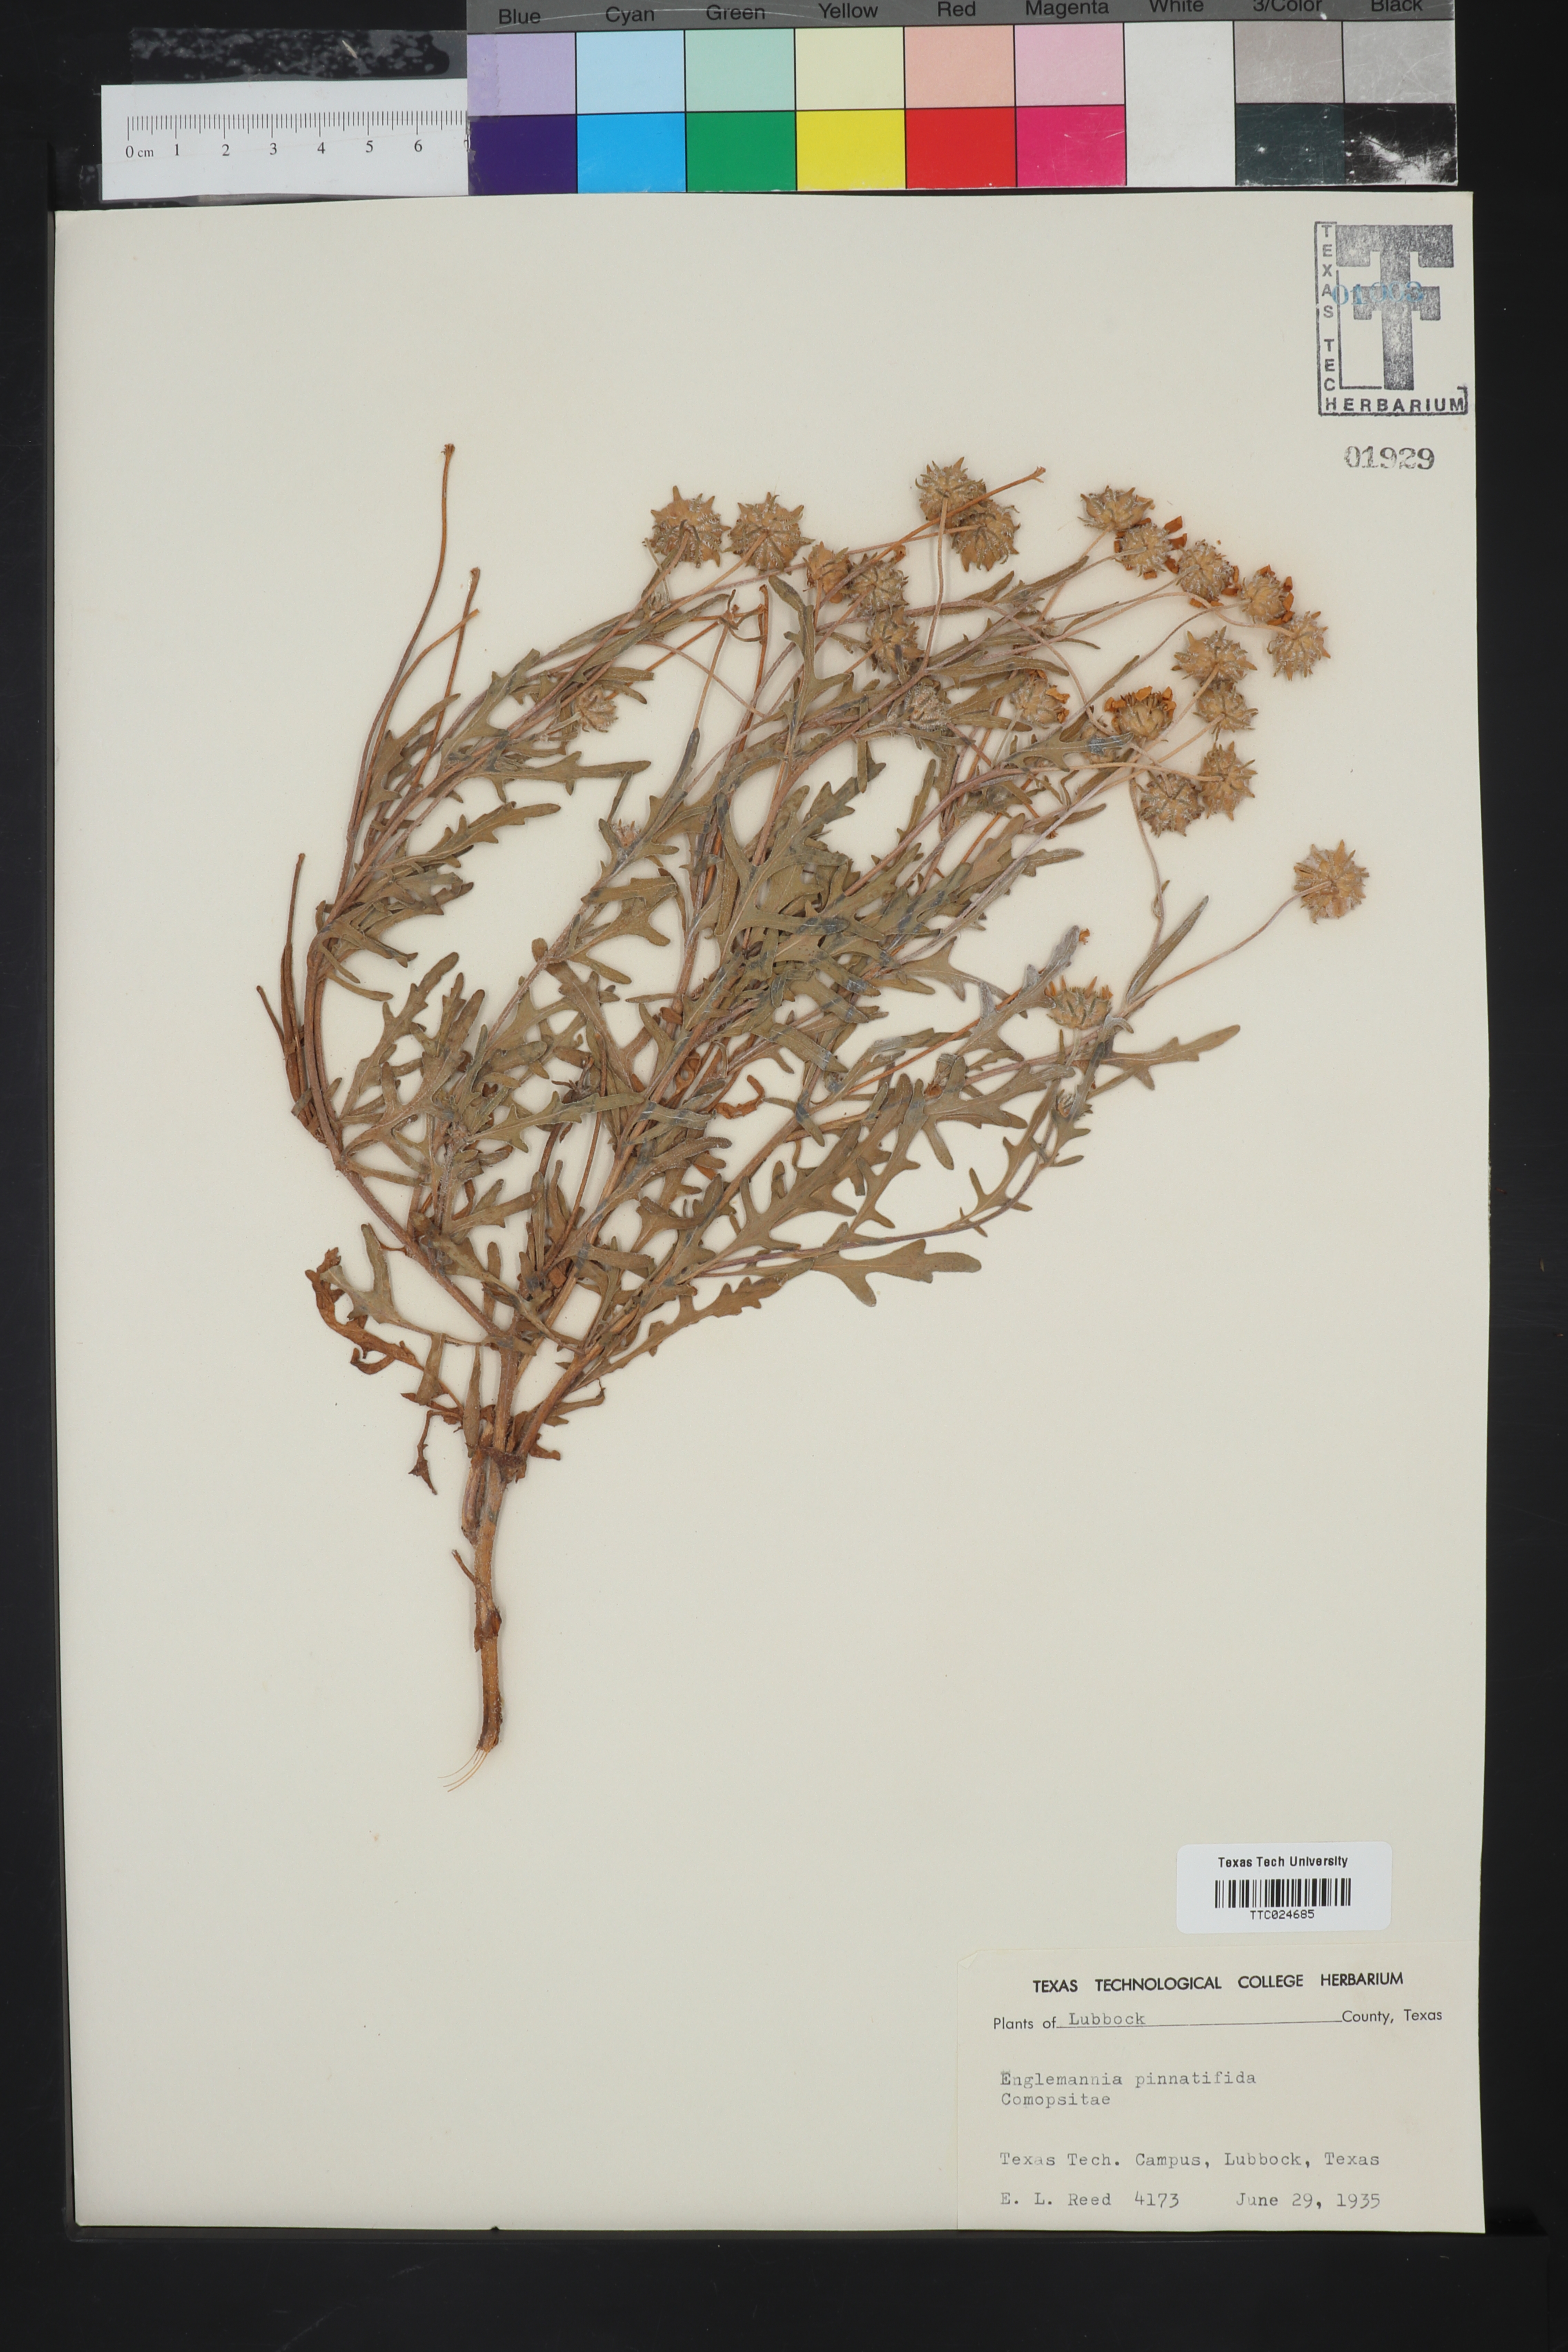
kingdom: Plantae
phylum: Tracheophyta
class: Magnoliopsida
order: Asterales
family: Asteraceae
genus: Engelmannia
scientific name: Engelmannia peristenia
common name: Engelmann's daisy
